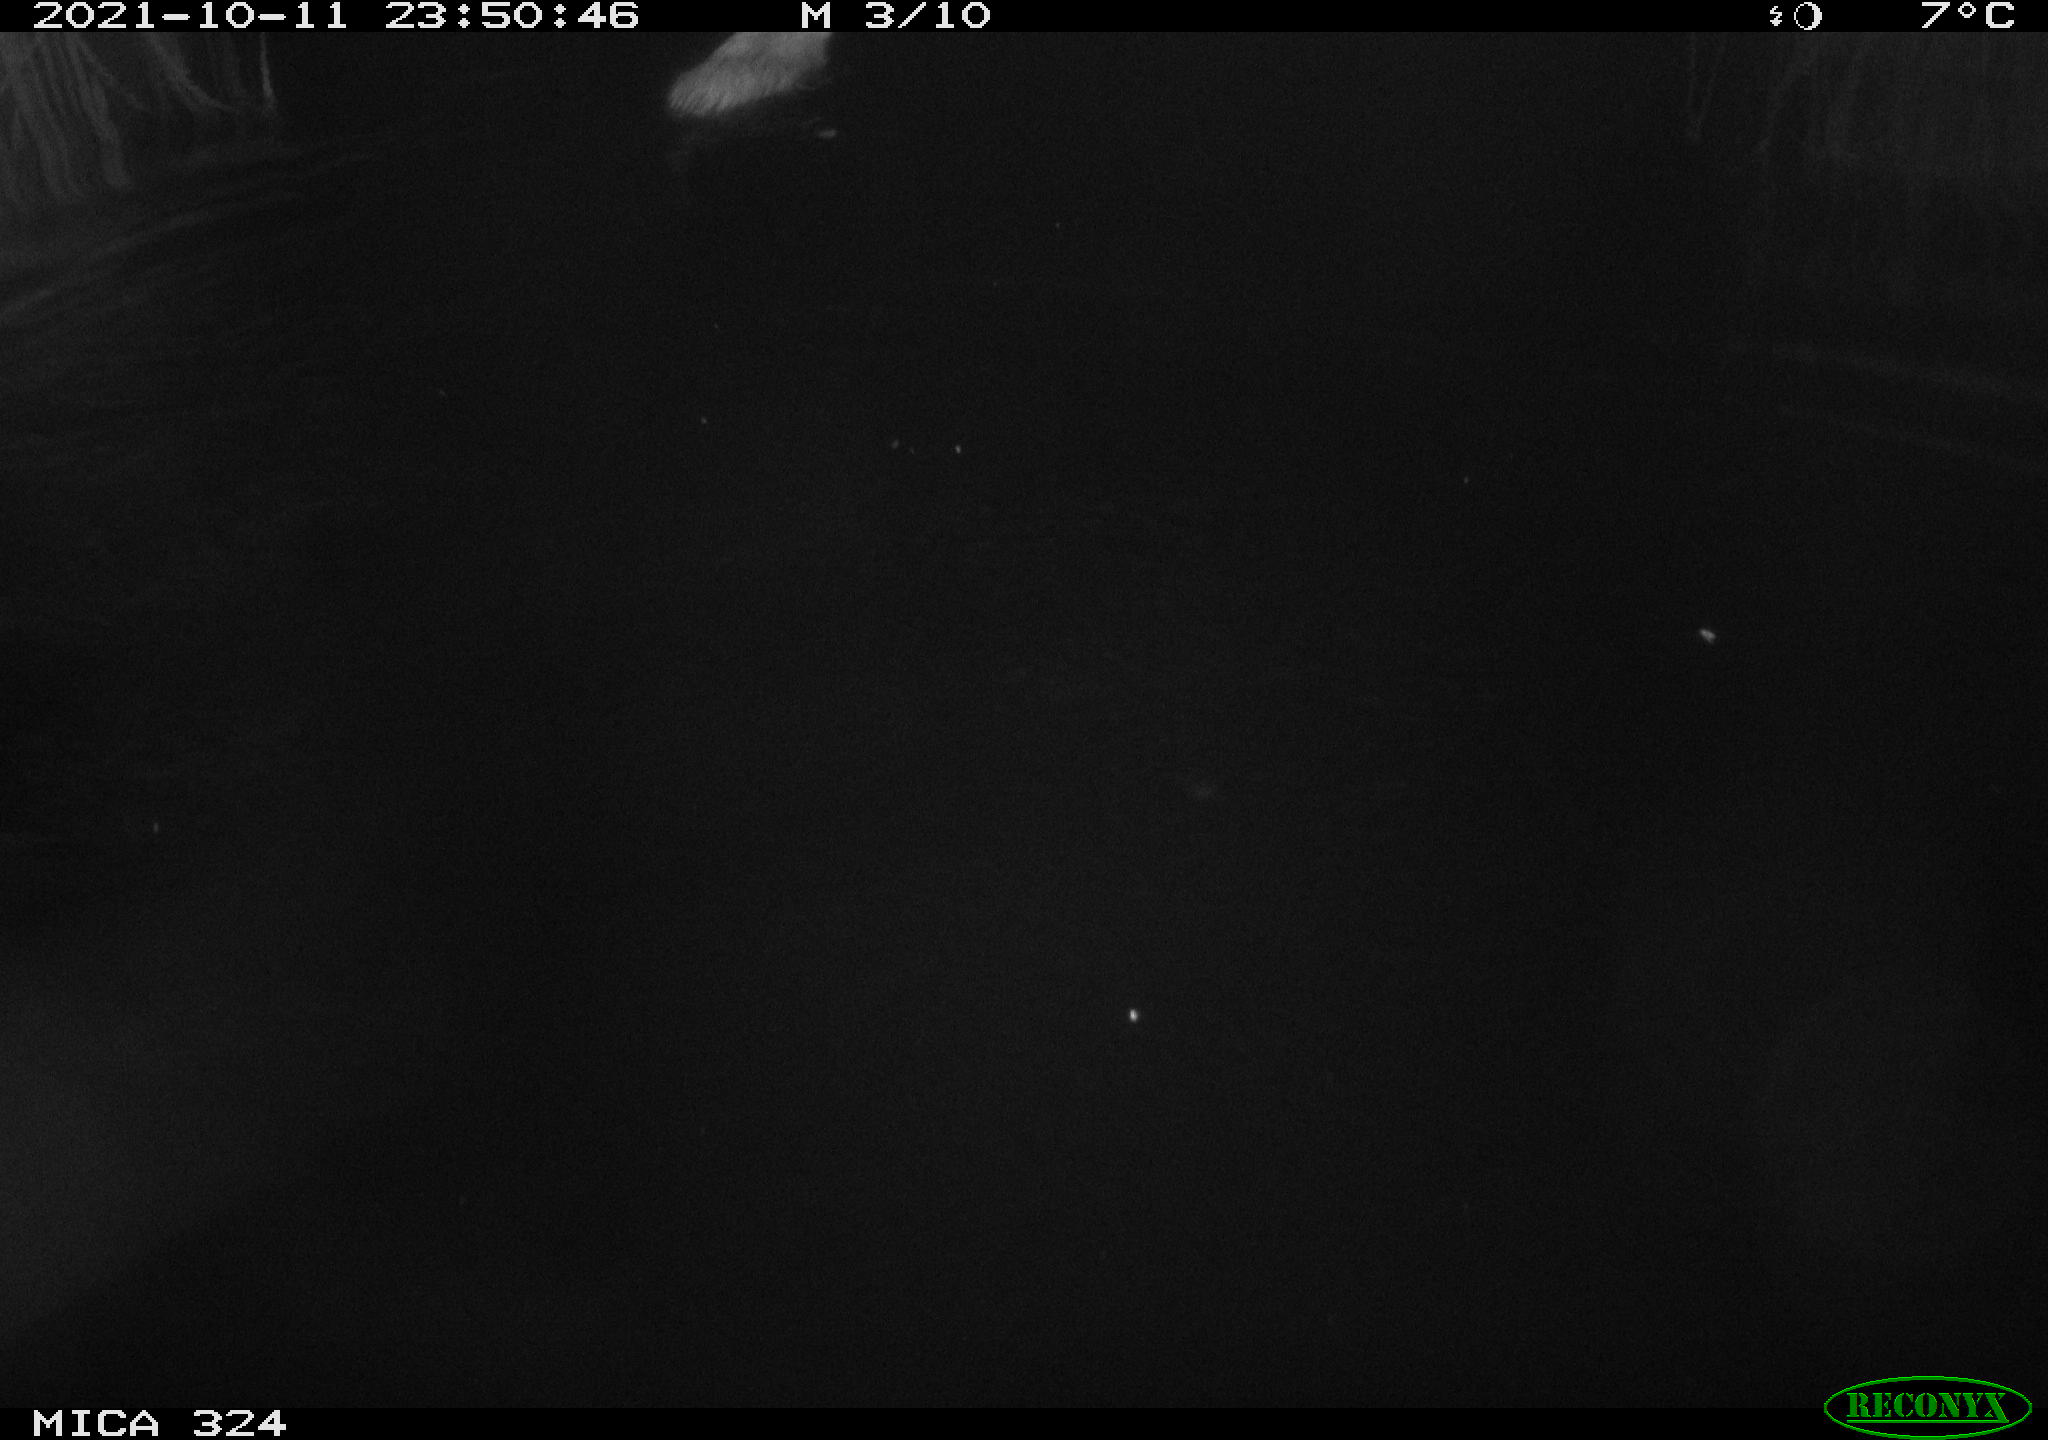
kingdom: Animalia
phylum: Chordata
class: Mammalia
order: Rodentia
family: Cricetidae
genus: Ondatra
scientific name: Ondatra zibethicus
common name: Muskrat
